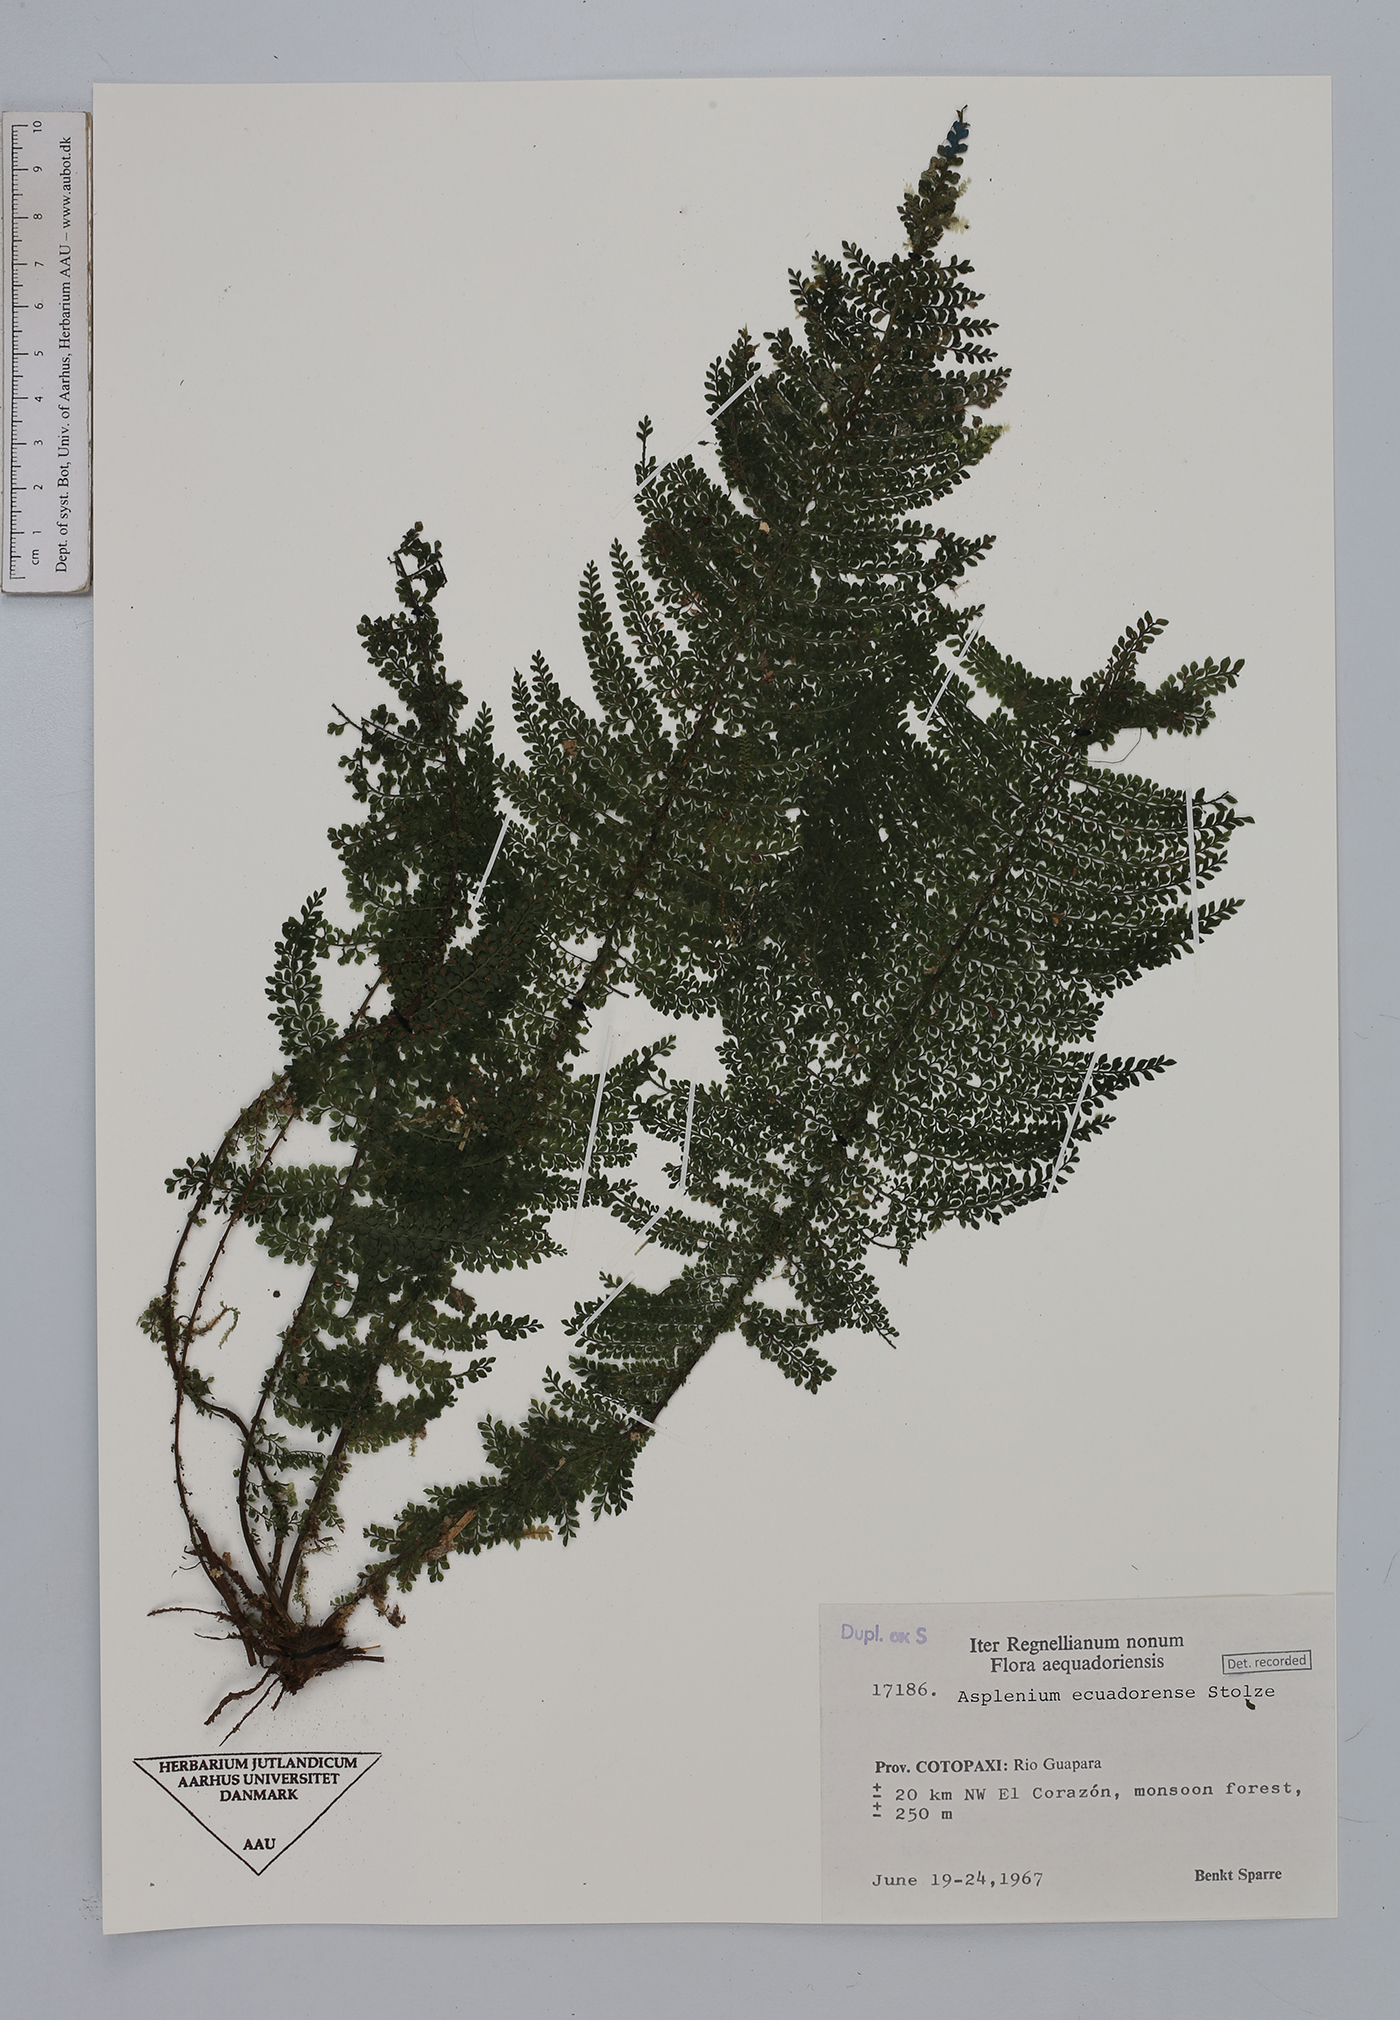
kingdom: Plantae
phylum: Tracheophyta
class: Polypodiopsida
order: Polypodiales
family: Aspleniaceae
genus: Asplenium
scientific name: Asplenium ecuadorense
